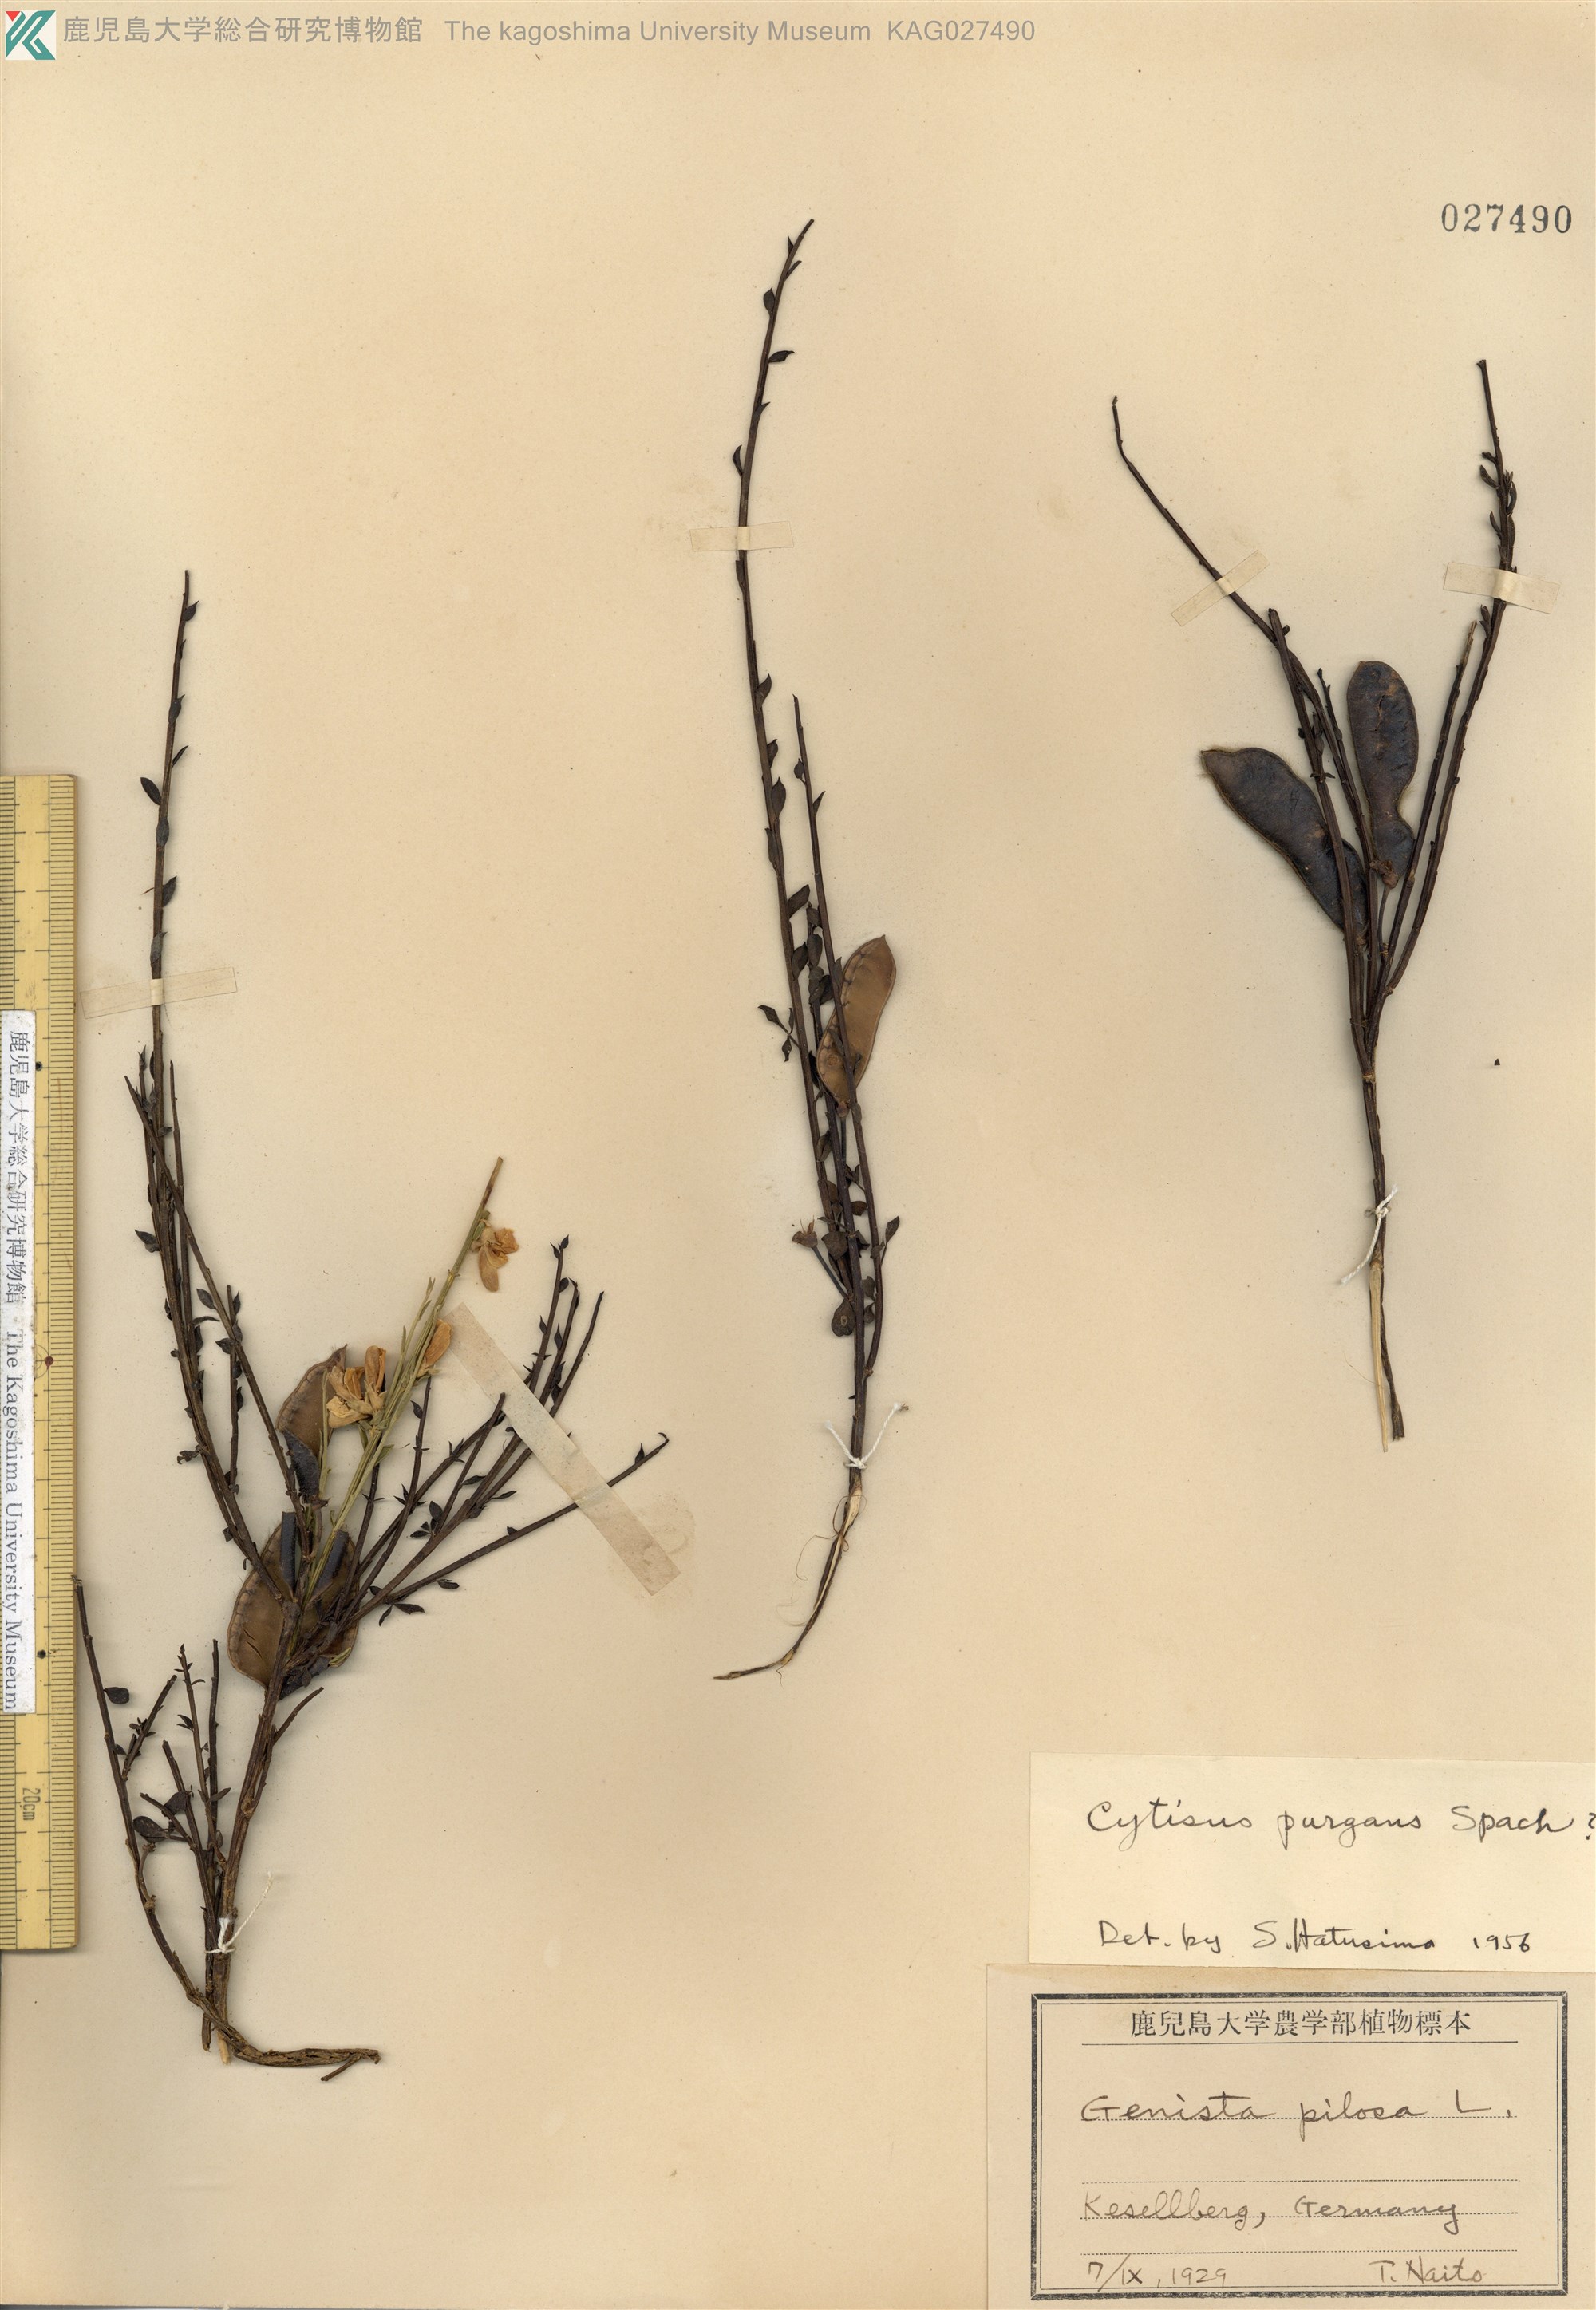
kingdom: Plantae
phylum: Tracheophyta
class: Magnoliopsida
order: Fabales
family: Fabaceae
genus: Genista
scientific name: Genista scorpius
